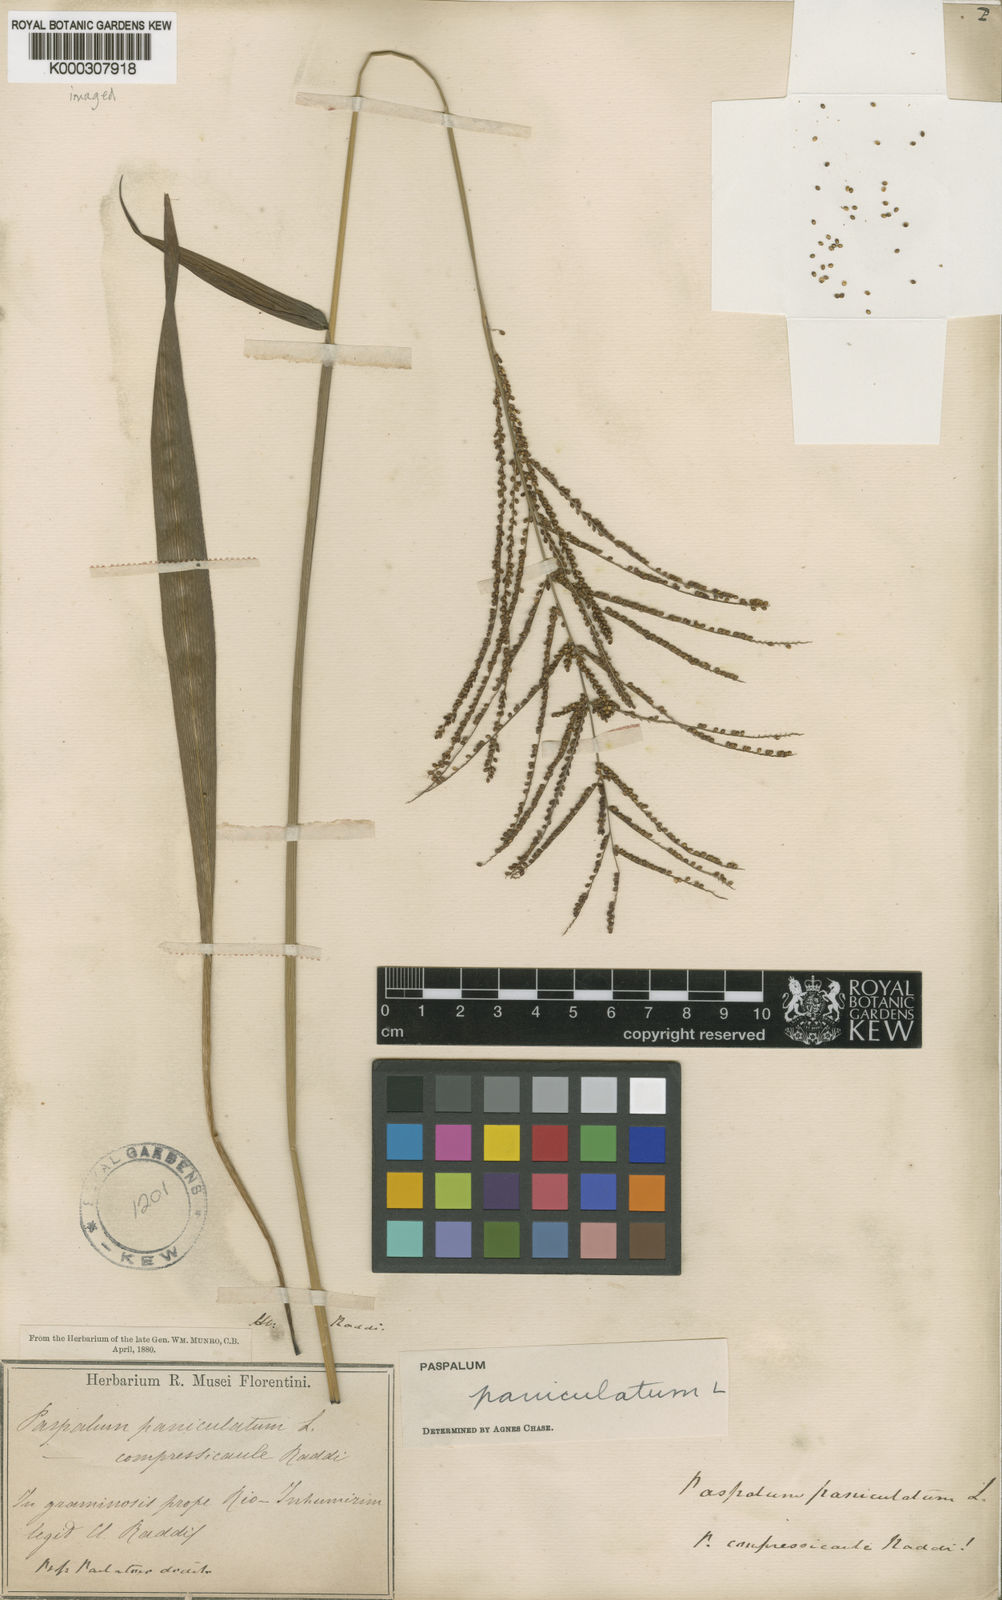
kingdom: Plantae
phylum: Tracheophyta
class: Liliopsida
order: Poales
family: Poaceae
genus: Paspalum
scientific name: Paspalum paniculatum
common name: Arrocillo
